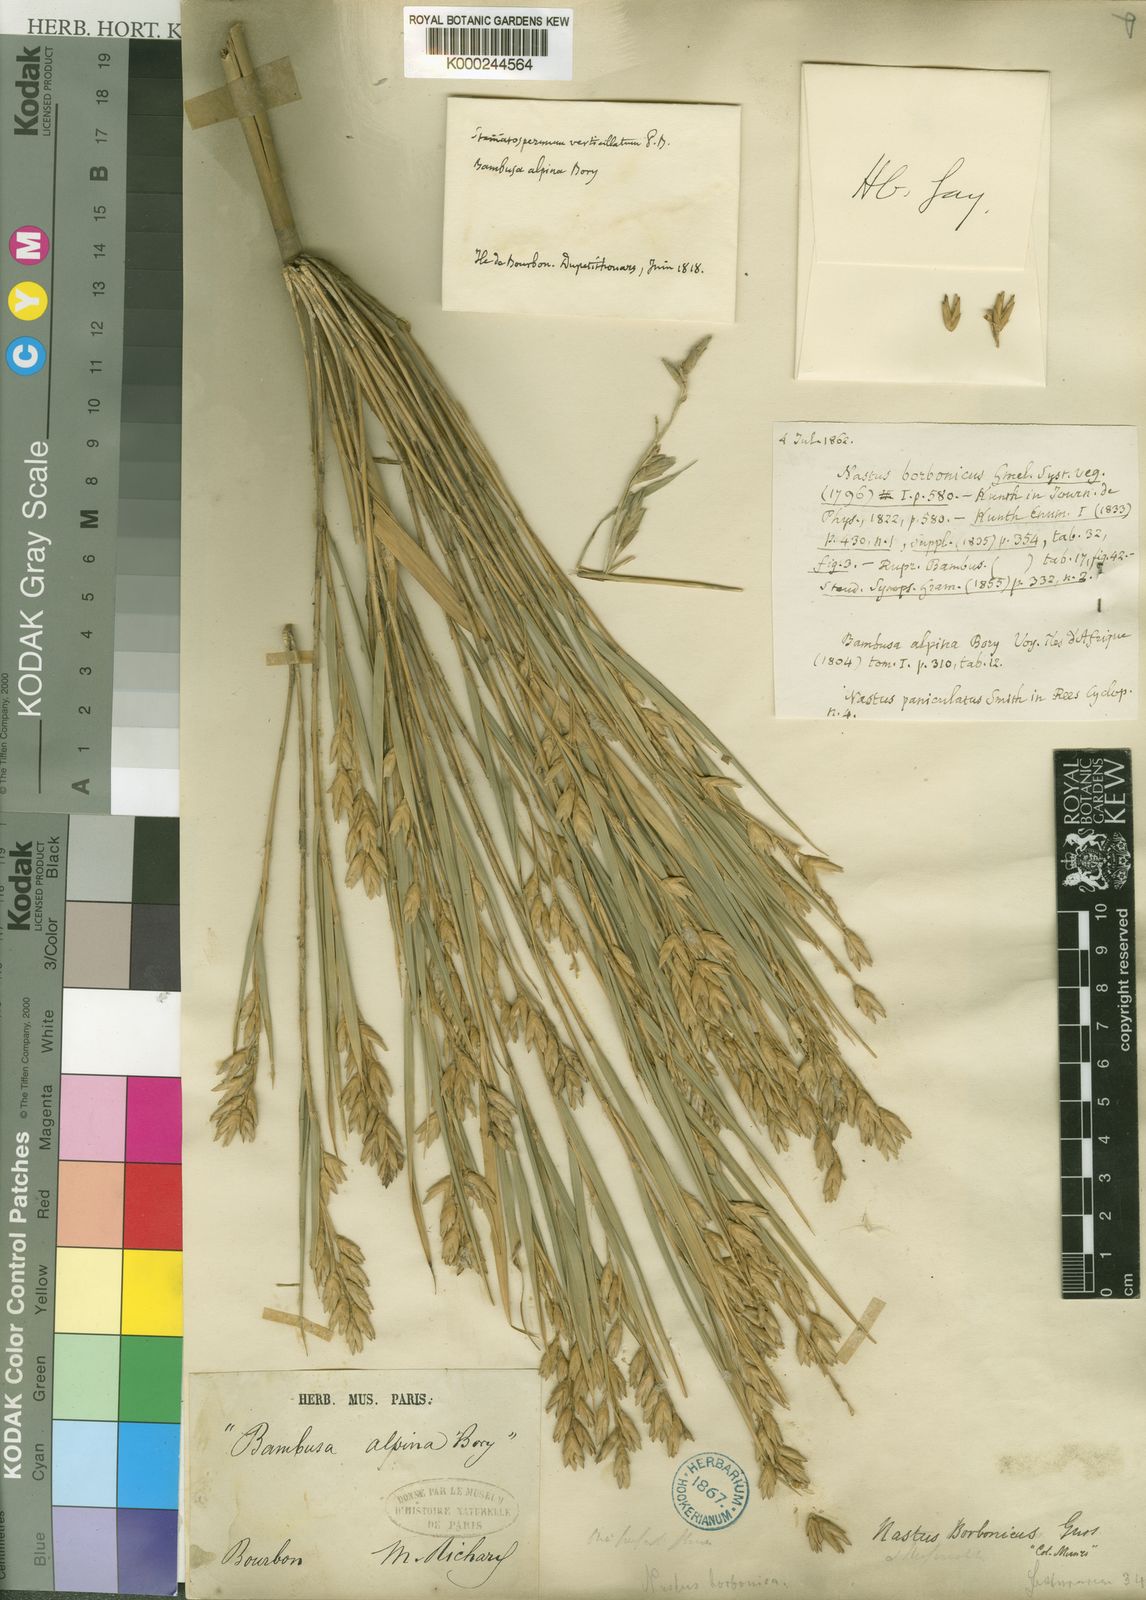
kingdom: Plantae
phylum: Tracheophyta
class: Liliopsida
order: Poales
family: Poaceae
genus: Nastus
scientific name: Nastus borbonicus
